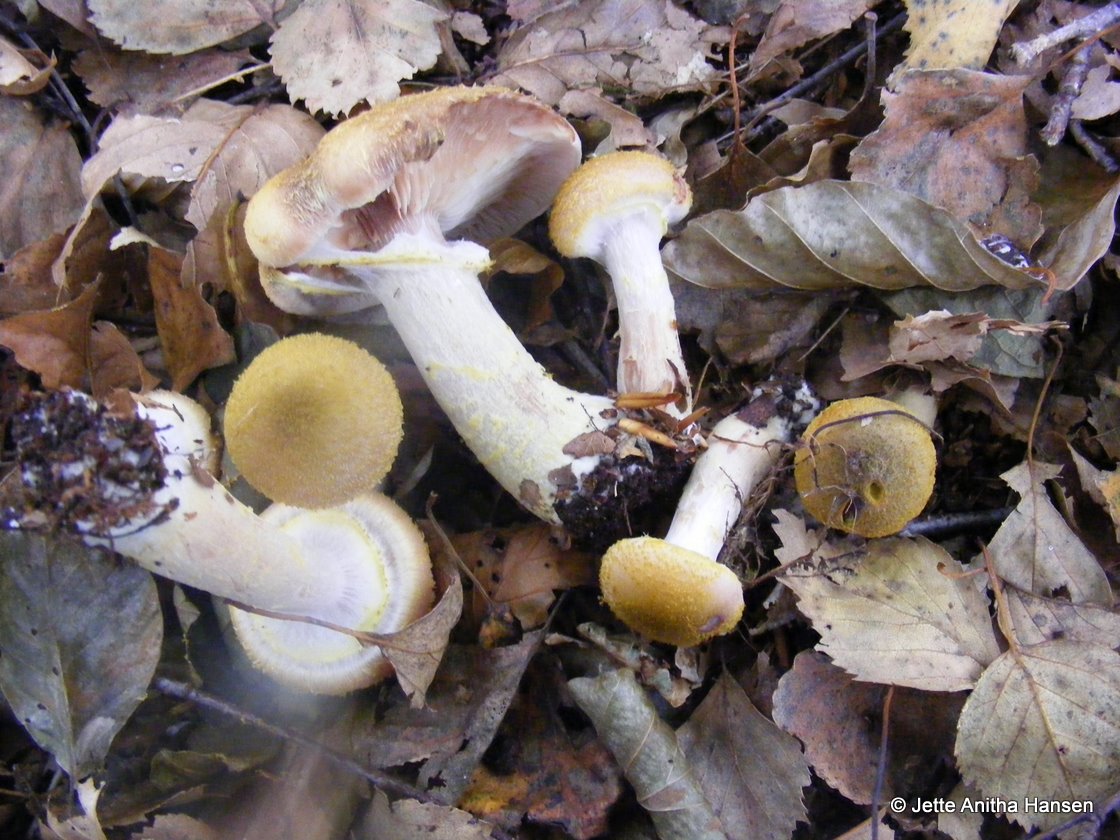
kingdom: Fungi
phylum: Basidiomycota
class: Agaricomycetes
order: Agaricales
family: Physalacriaceae
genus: Armillaria
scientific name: Armillaria lutea
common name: køllestokket honningsvamp
